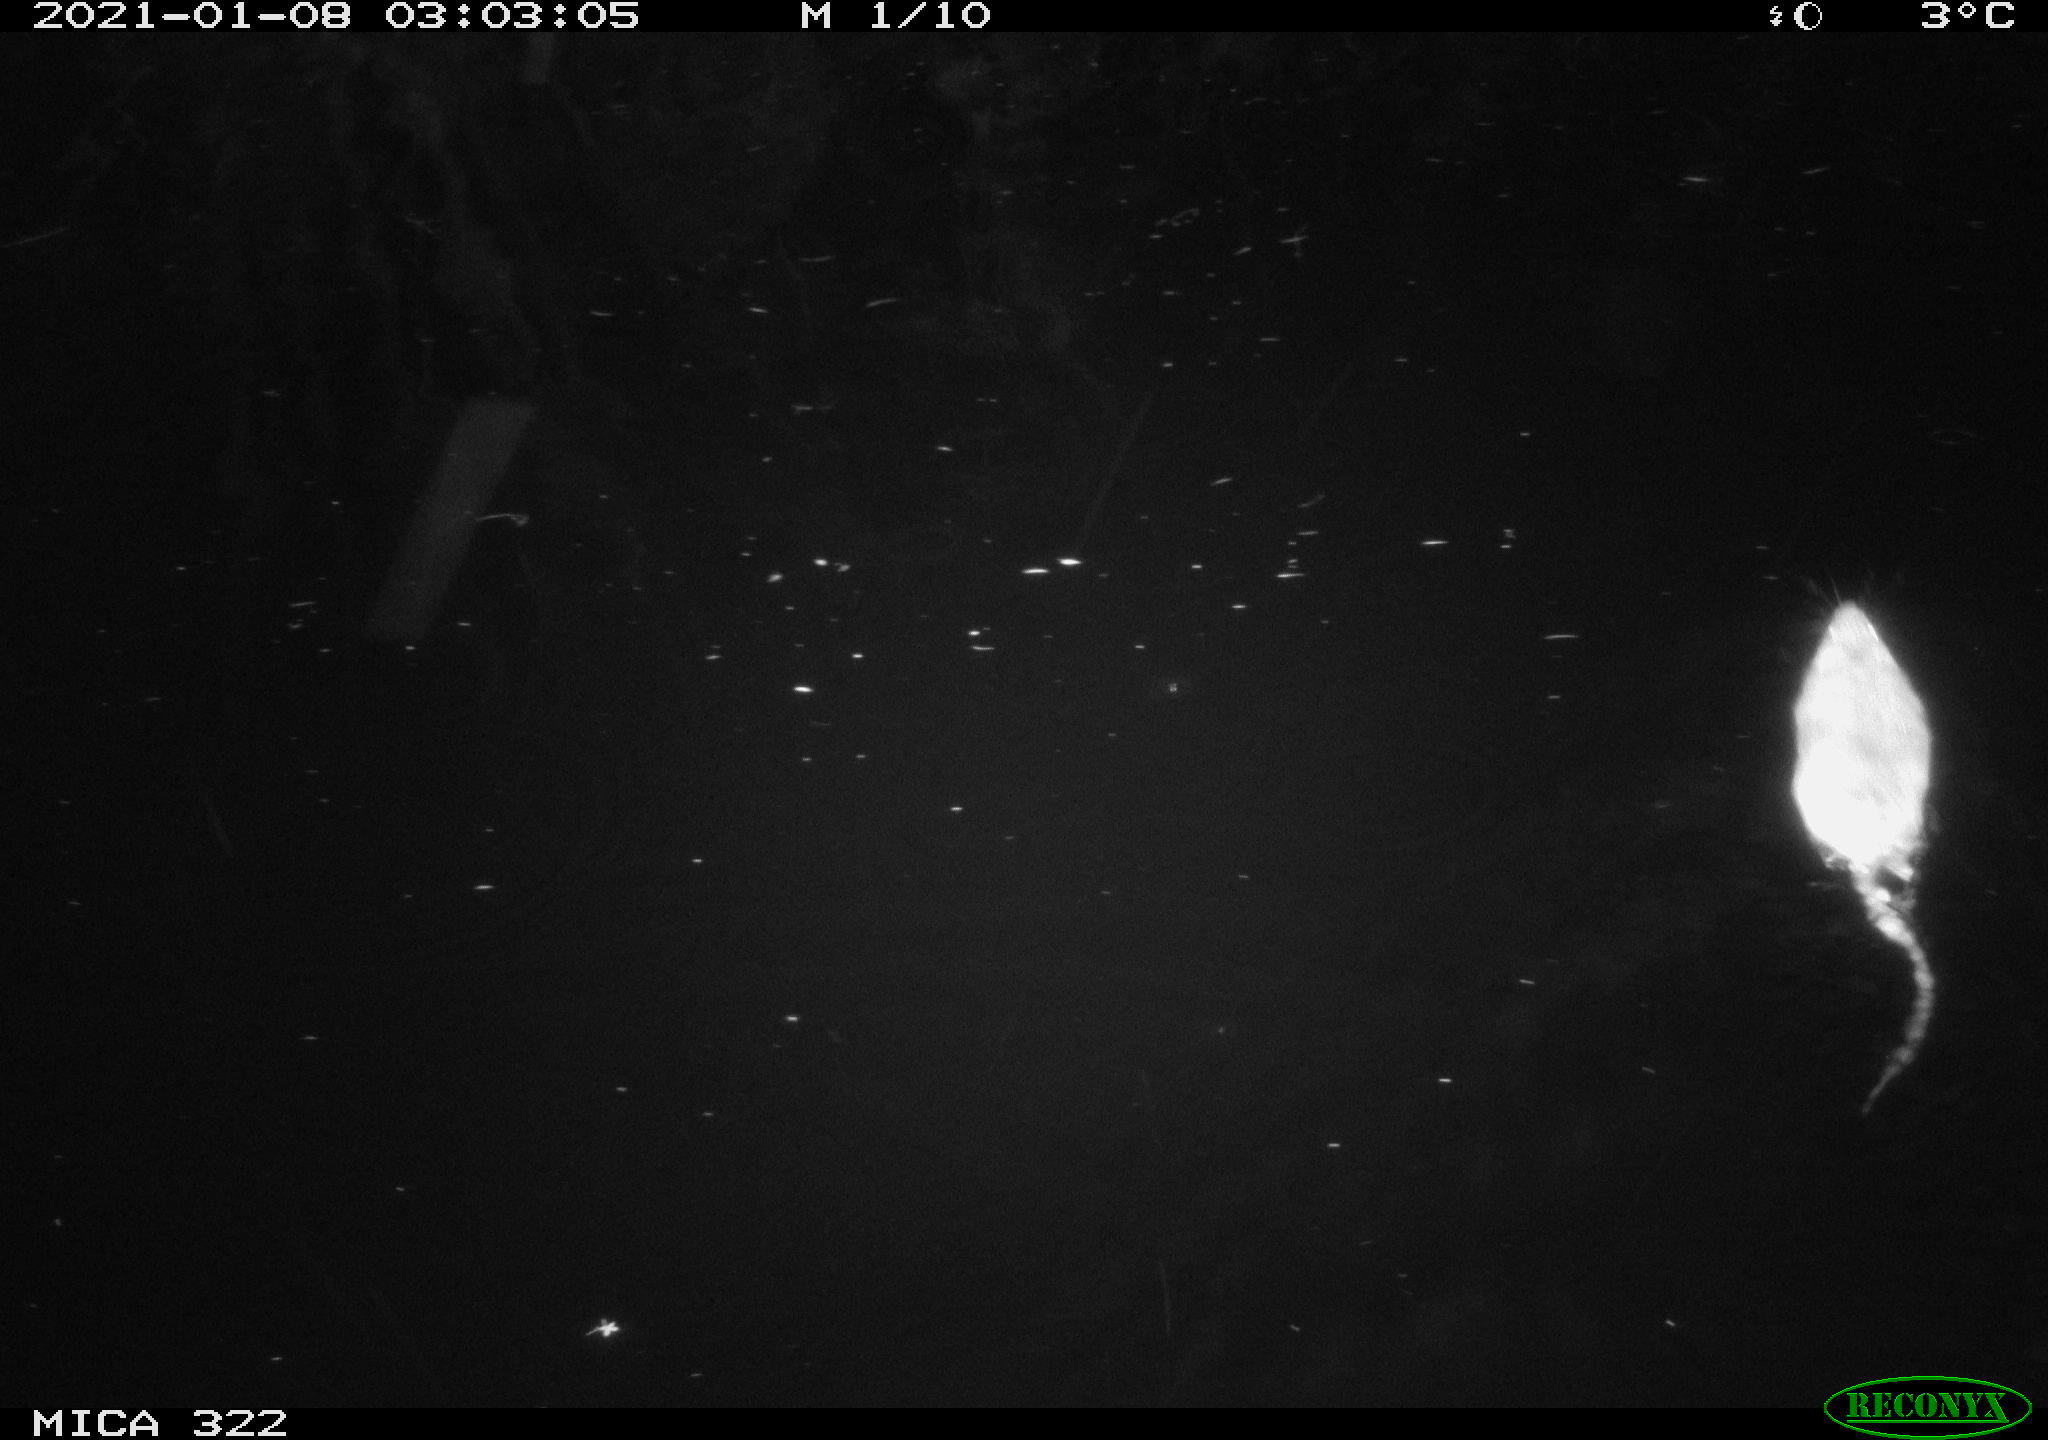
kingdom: Animalia
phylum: Chordata
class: Mammalia
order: Rodentia
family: Muridae
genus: Rattus
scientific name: Rattus norvegicus
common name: Brown rat
